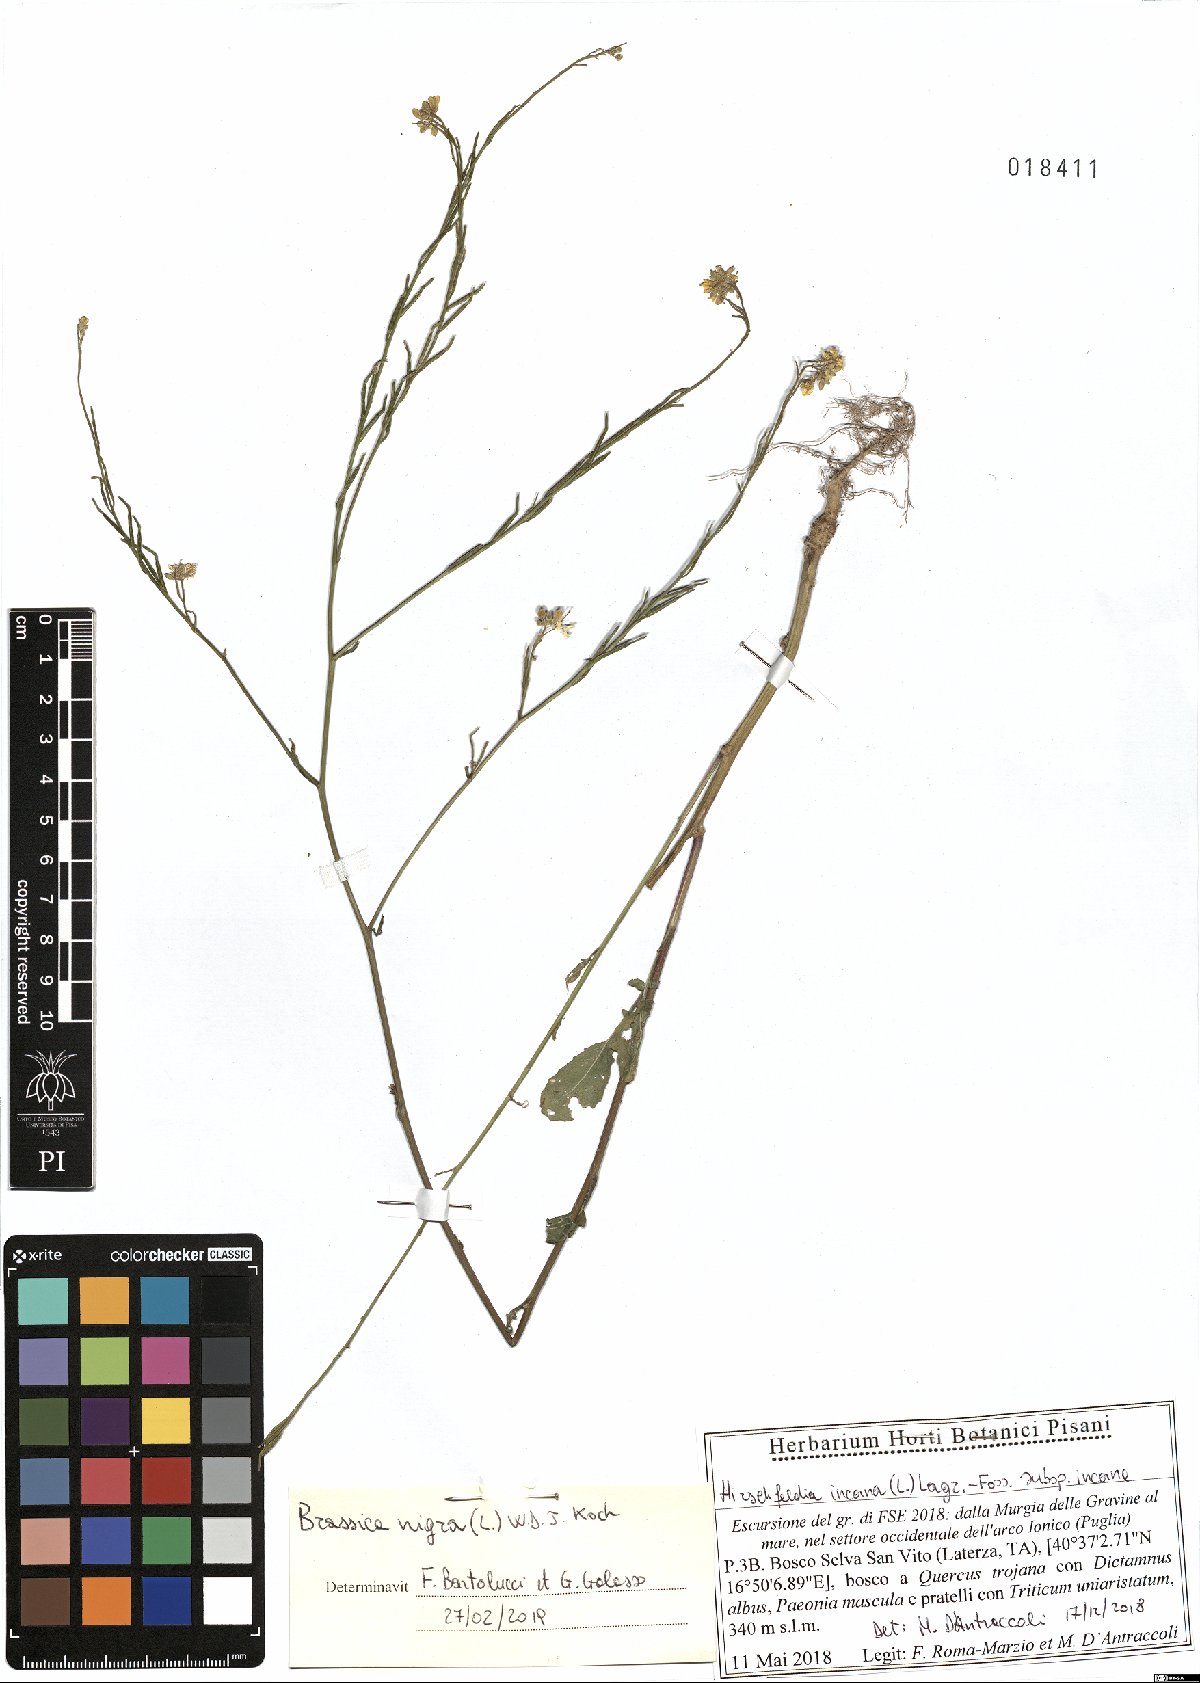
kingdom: Plantae
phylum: Tracheophyta
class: Magnoliopsida
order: Brassicales
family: Brassicaceae
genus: Brassica
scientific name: Brassica nigra
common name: Black mustard
